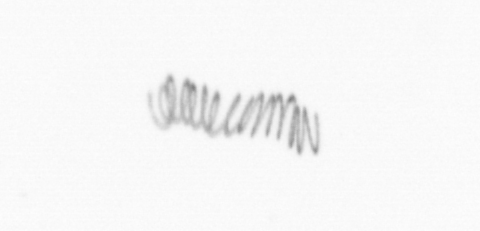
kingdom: Chromista
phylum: Ochrophyta
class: Bacillariophyceae
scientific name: Bacillariophyceae
